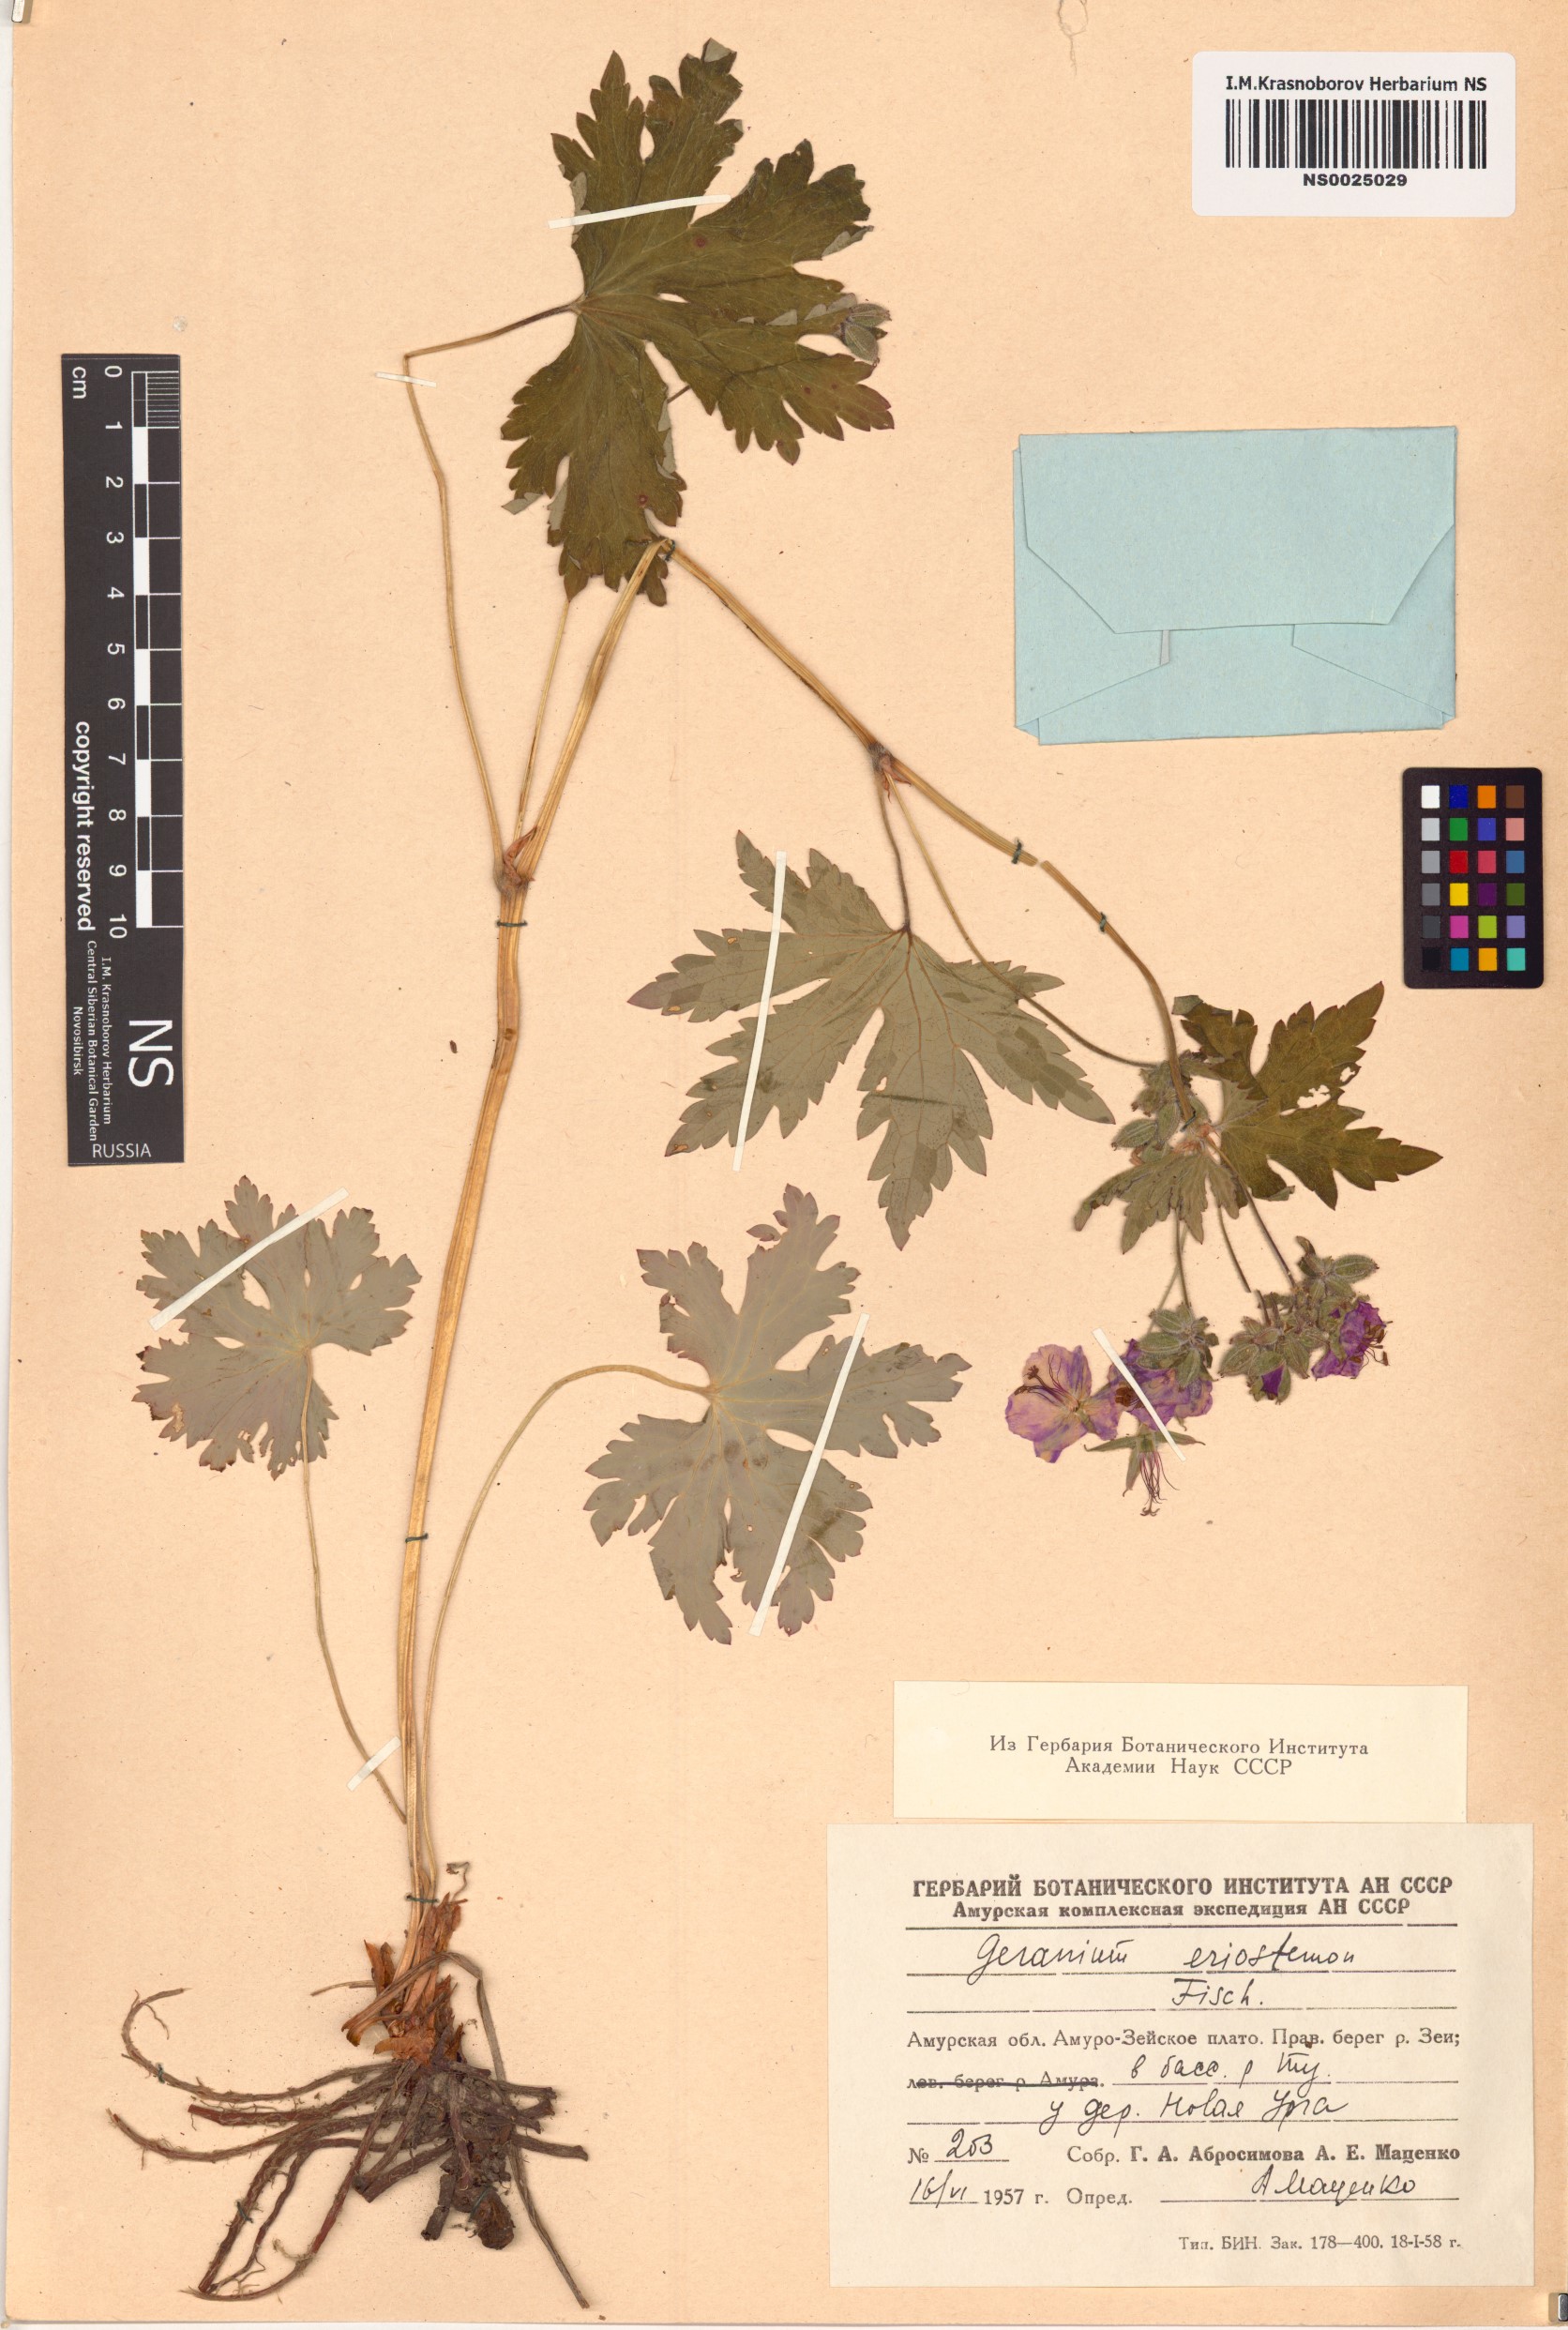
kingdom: Plantae
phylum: Tracheophyta
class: Magnoliopsida
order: Geraniales
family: Geraniaceae
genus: Geranium
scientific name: Geranium platyanthum
